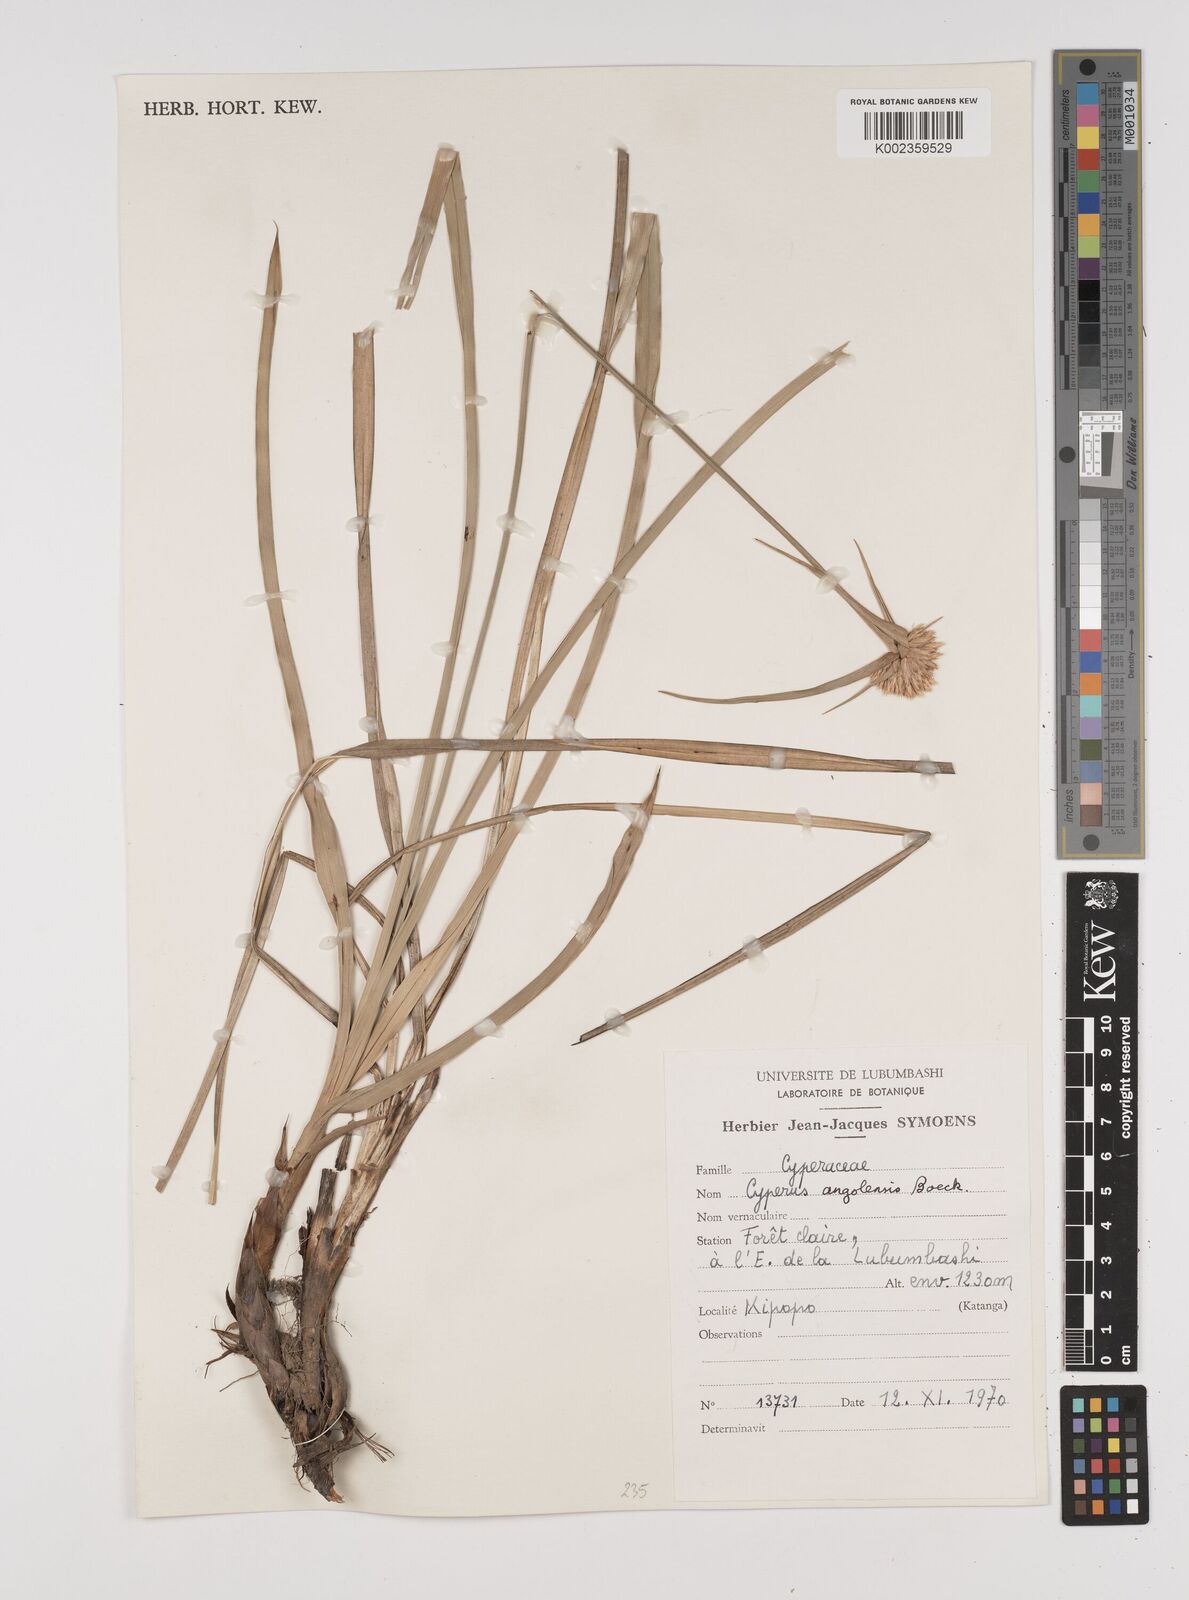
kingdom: Plantae
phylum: Tracheophyta
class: Liliopsida
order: Poales
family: Cyperaceae
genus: Cyperus
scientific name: Cyperus angolensis
